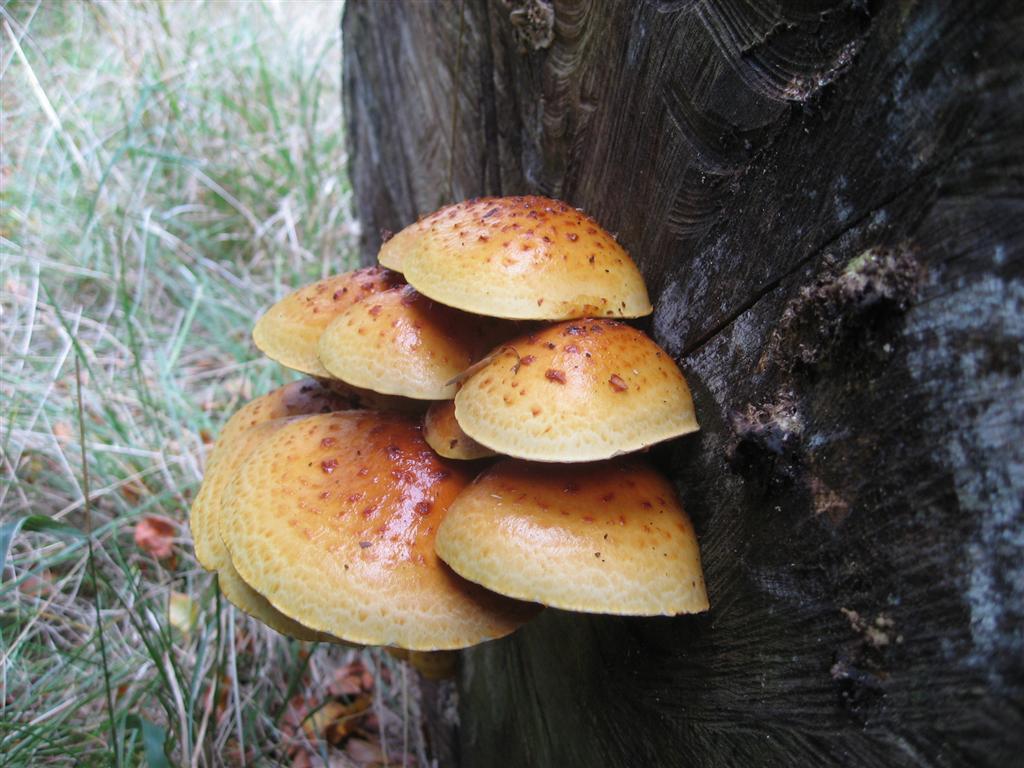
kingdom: Fungi
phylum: Basidiomycota
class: Agaricomycetes
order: Agaricales
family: Strophariaceae
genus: Pholiota
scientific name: Pholiota adiposa
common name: højtsiddende skælhat
